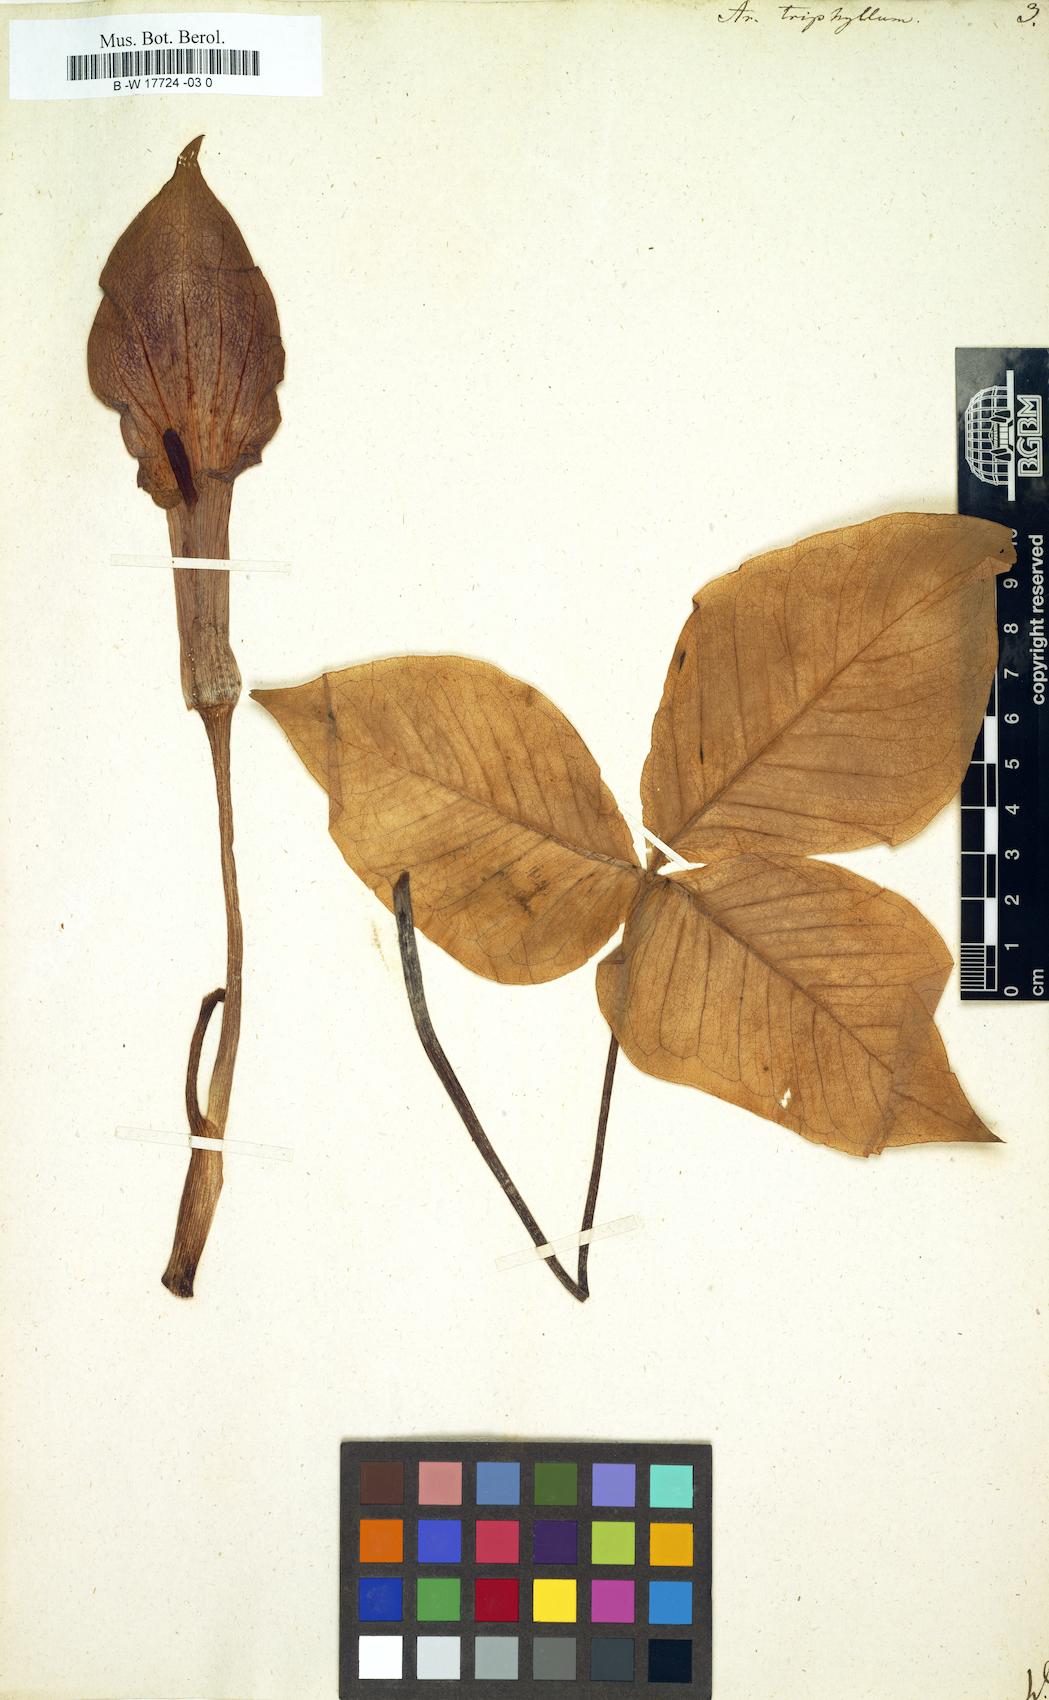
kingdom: Plantae
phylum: Tracheophyta
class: Liliopsida
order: Alismatales
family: Araceae
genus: Arum
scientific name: Arum triphyllum
